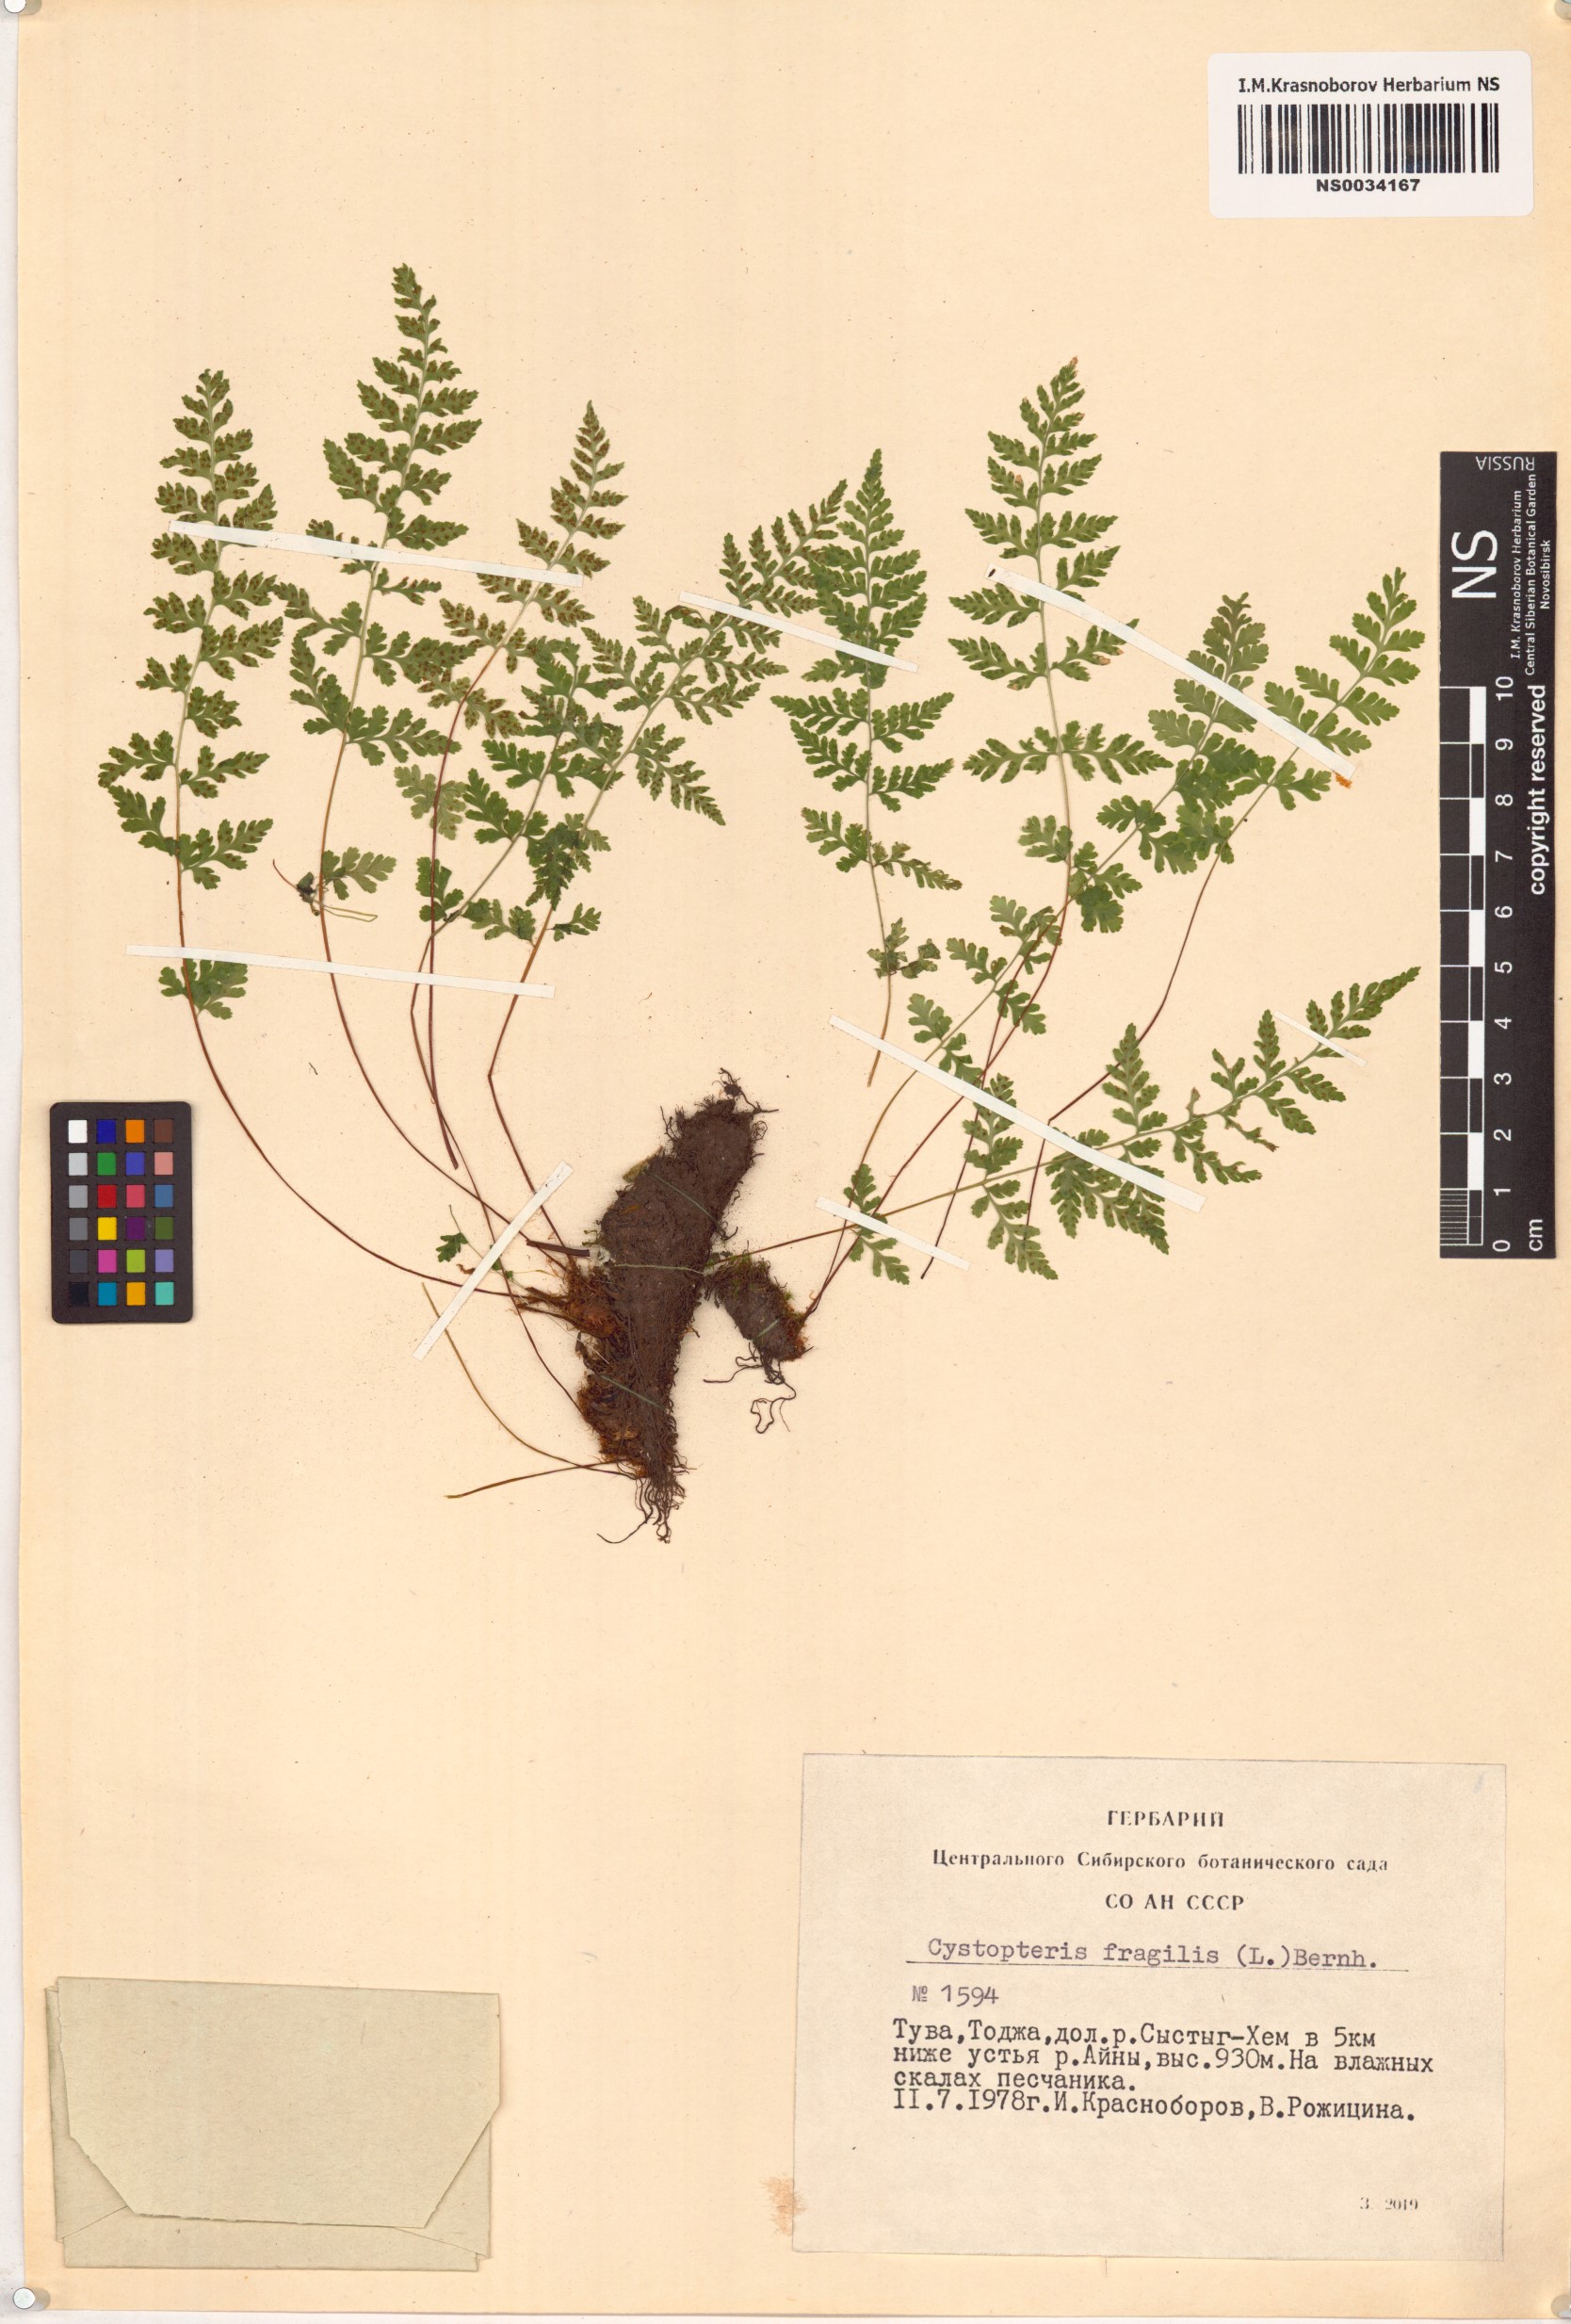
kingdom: Plantae
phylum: Tracheophyta
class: Polypodiopsida
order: Polypodiales
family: Cystopteridaceae
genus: Cystopteris
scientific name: Cystopteris fragilis
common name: Brittle bladder fern
